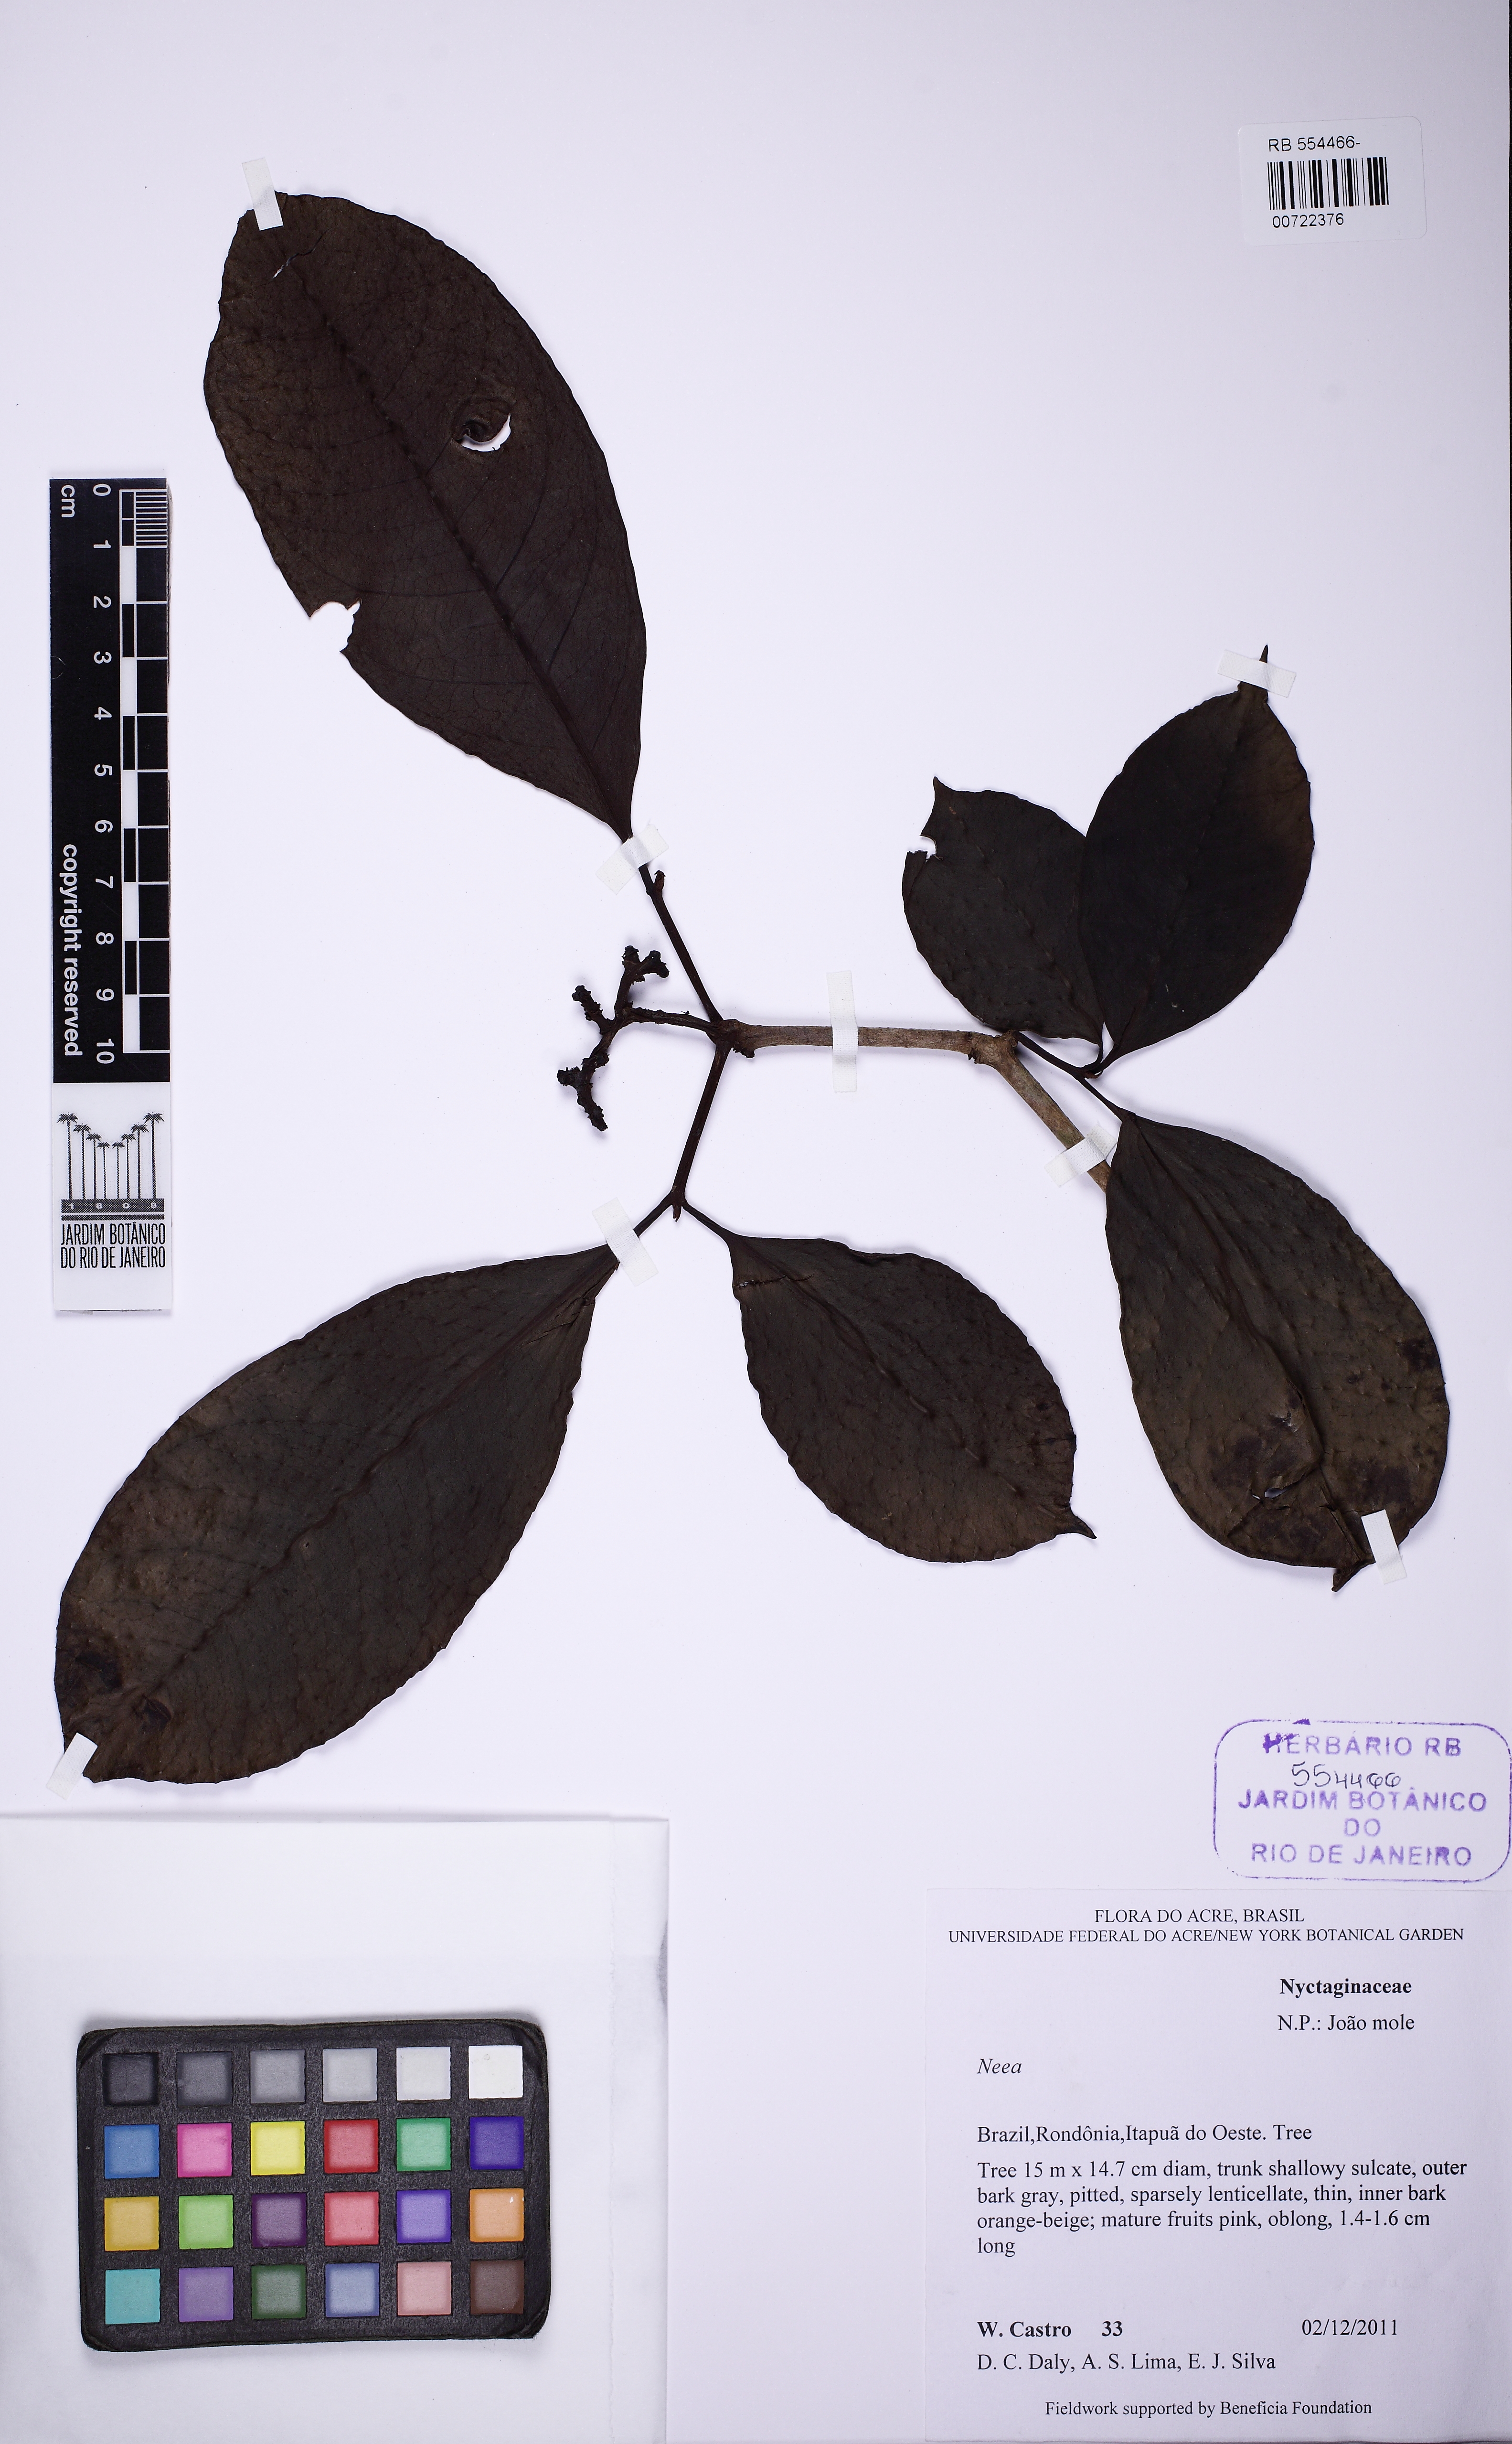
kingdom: Plantae
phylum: Tracheophyta
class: Magnoliopsida
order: Caryophyllales
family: Nyctaginaceae
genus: Neea
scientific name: Neea
